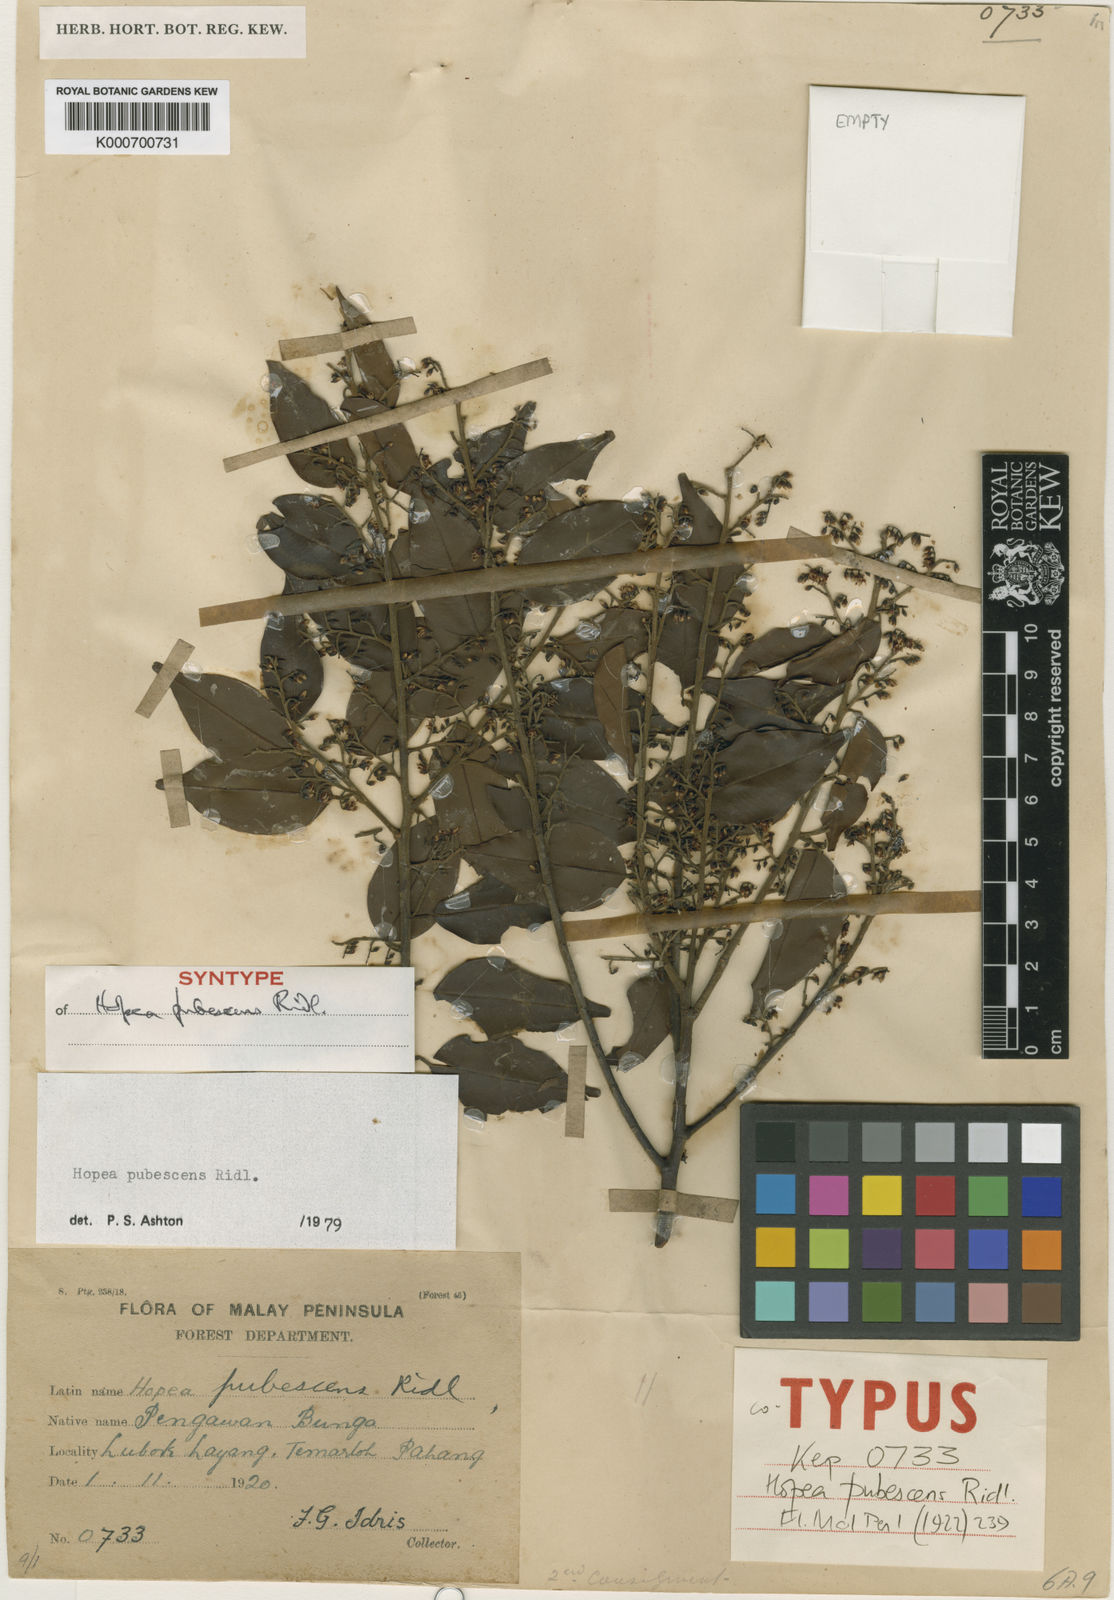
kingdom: Plantae
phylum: Tracheophyta
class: Magnoliopsida
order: Malvales
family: Dipterocarpaceae
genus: Hopea
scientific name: Hopea pubescens
